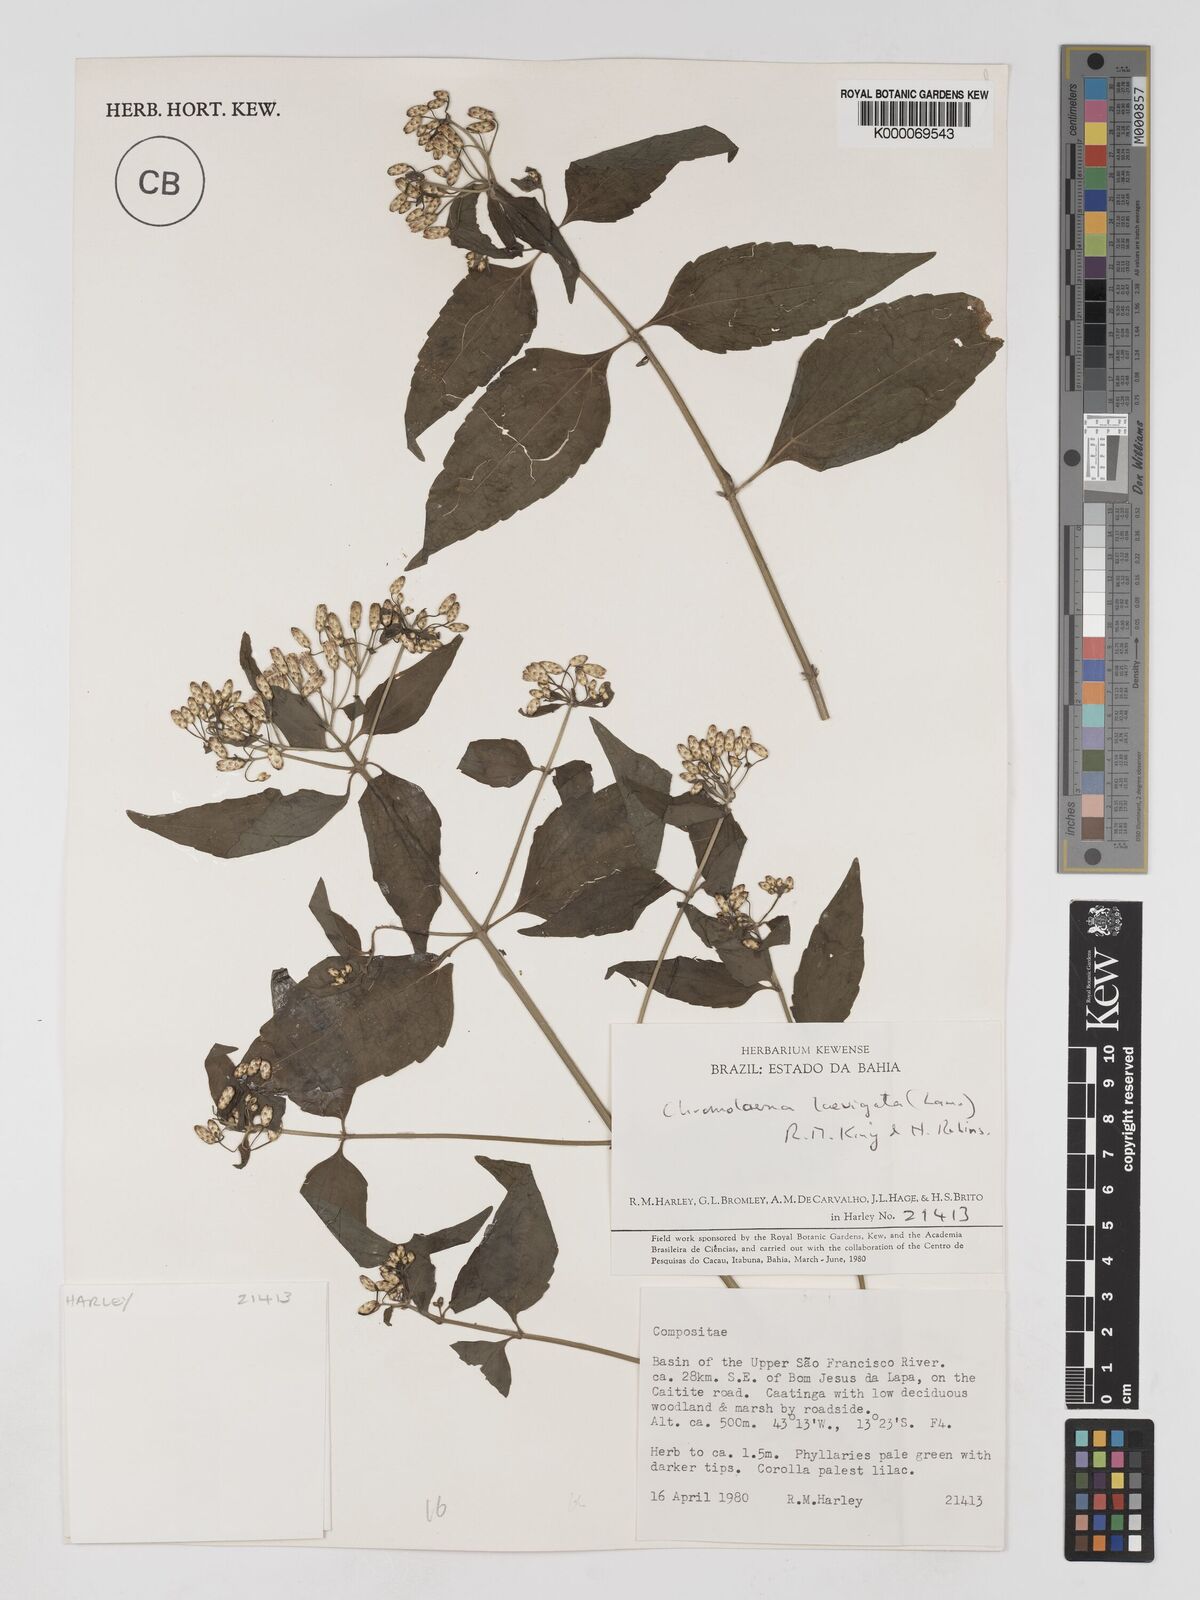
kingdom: Plantae
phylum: Tracheophyta
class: Magnoliopsida
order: Asterales
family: Asteraceae
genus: Chromolaena
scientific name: Chromolaena laevigata
